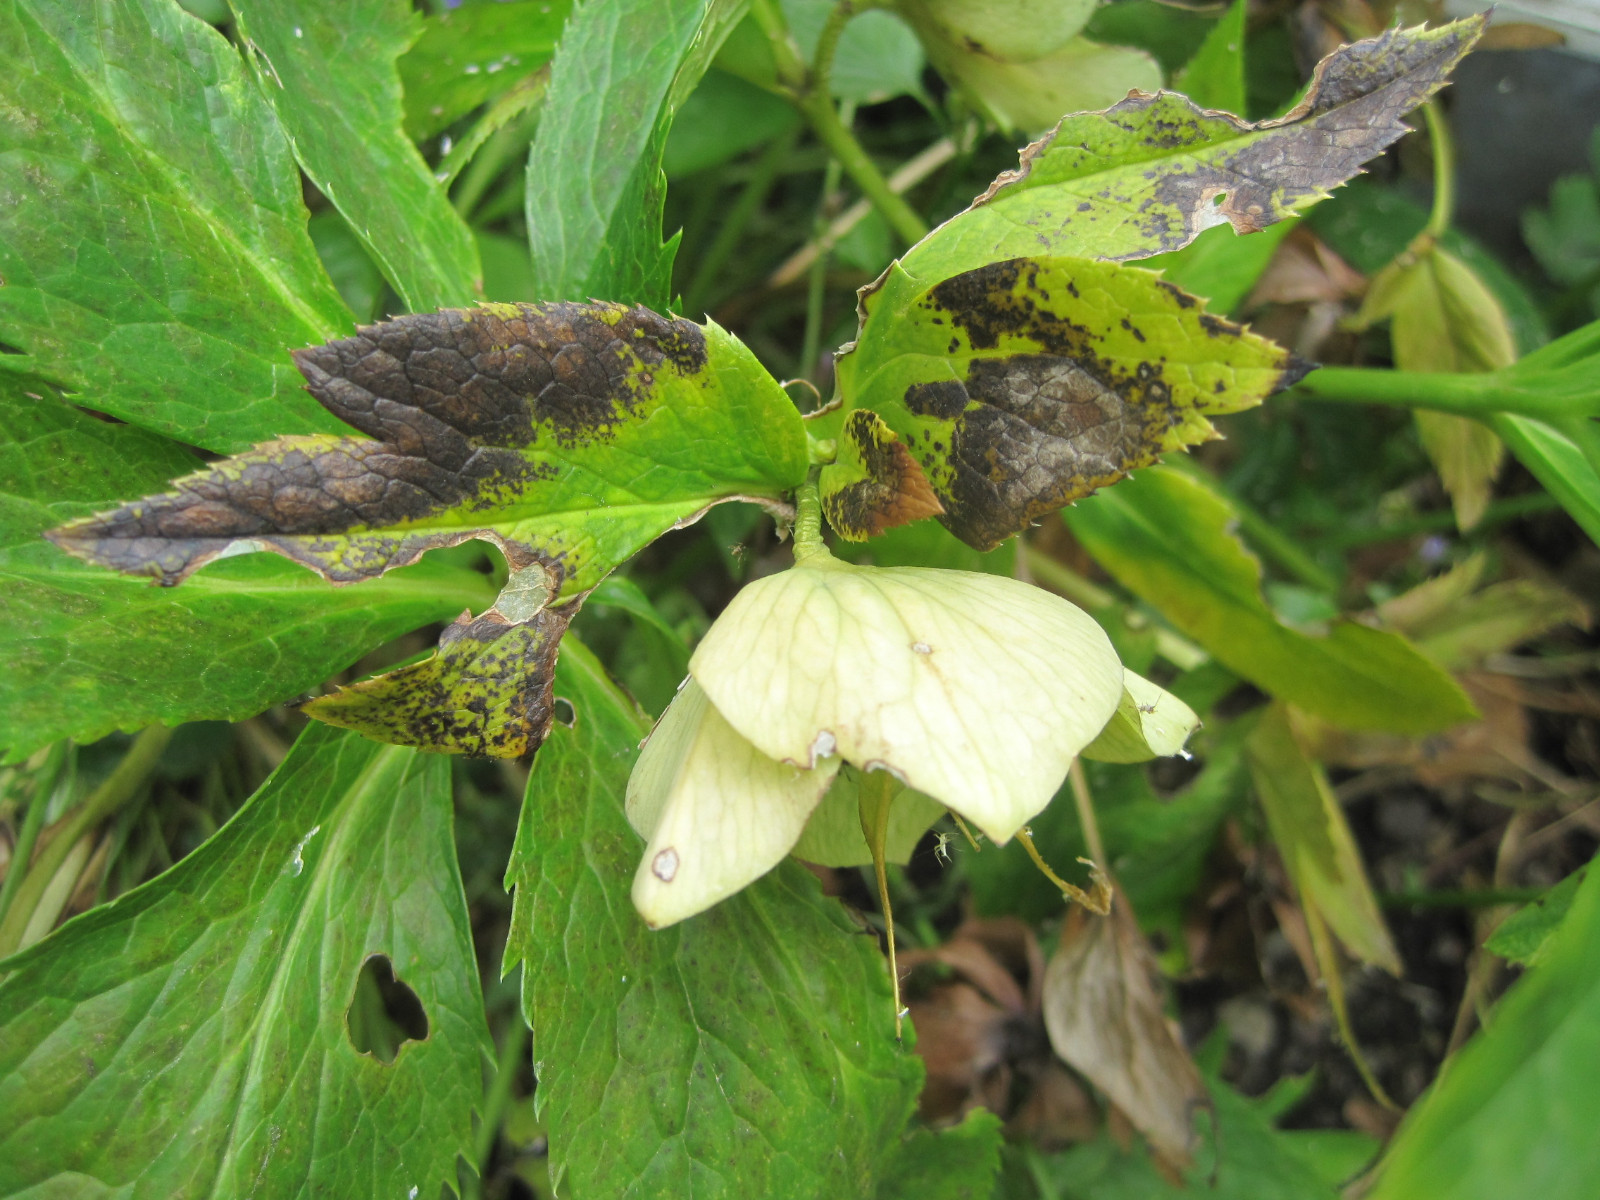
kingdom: Fungi
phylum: Ascomycota
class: Dothideomycetes
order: Pleosporales
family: Didymellaceae
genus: Microsphaeropsis
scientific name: Microsphaeropsis hellebori
